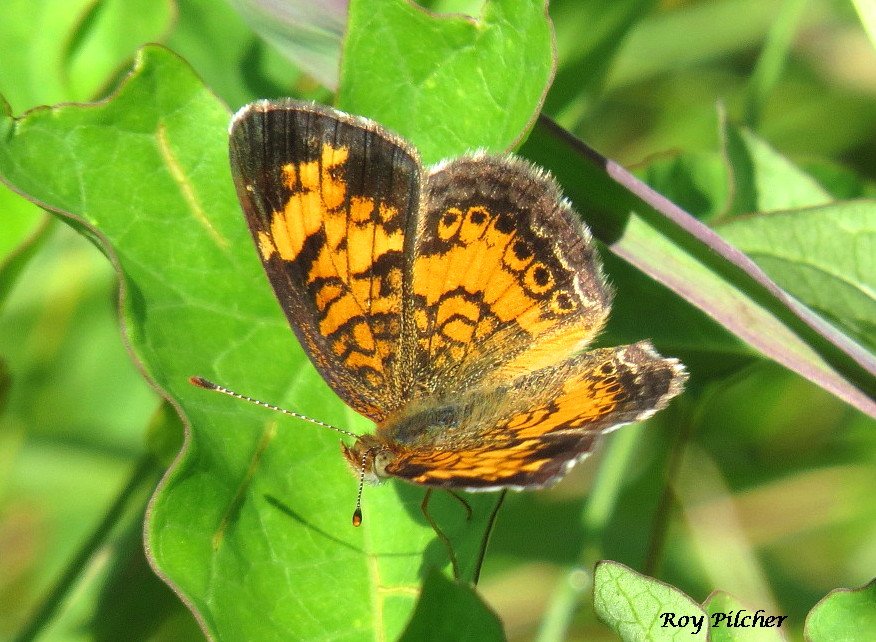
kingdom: Animalia
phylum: Arthropoda
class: Insecta
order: Lepidoptera
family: Nymphalidae
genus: Phyciodes
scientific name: Phyciodes tharos
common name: Northern Crescent
